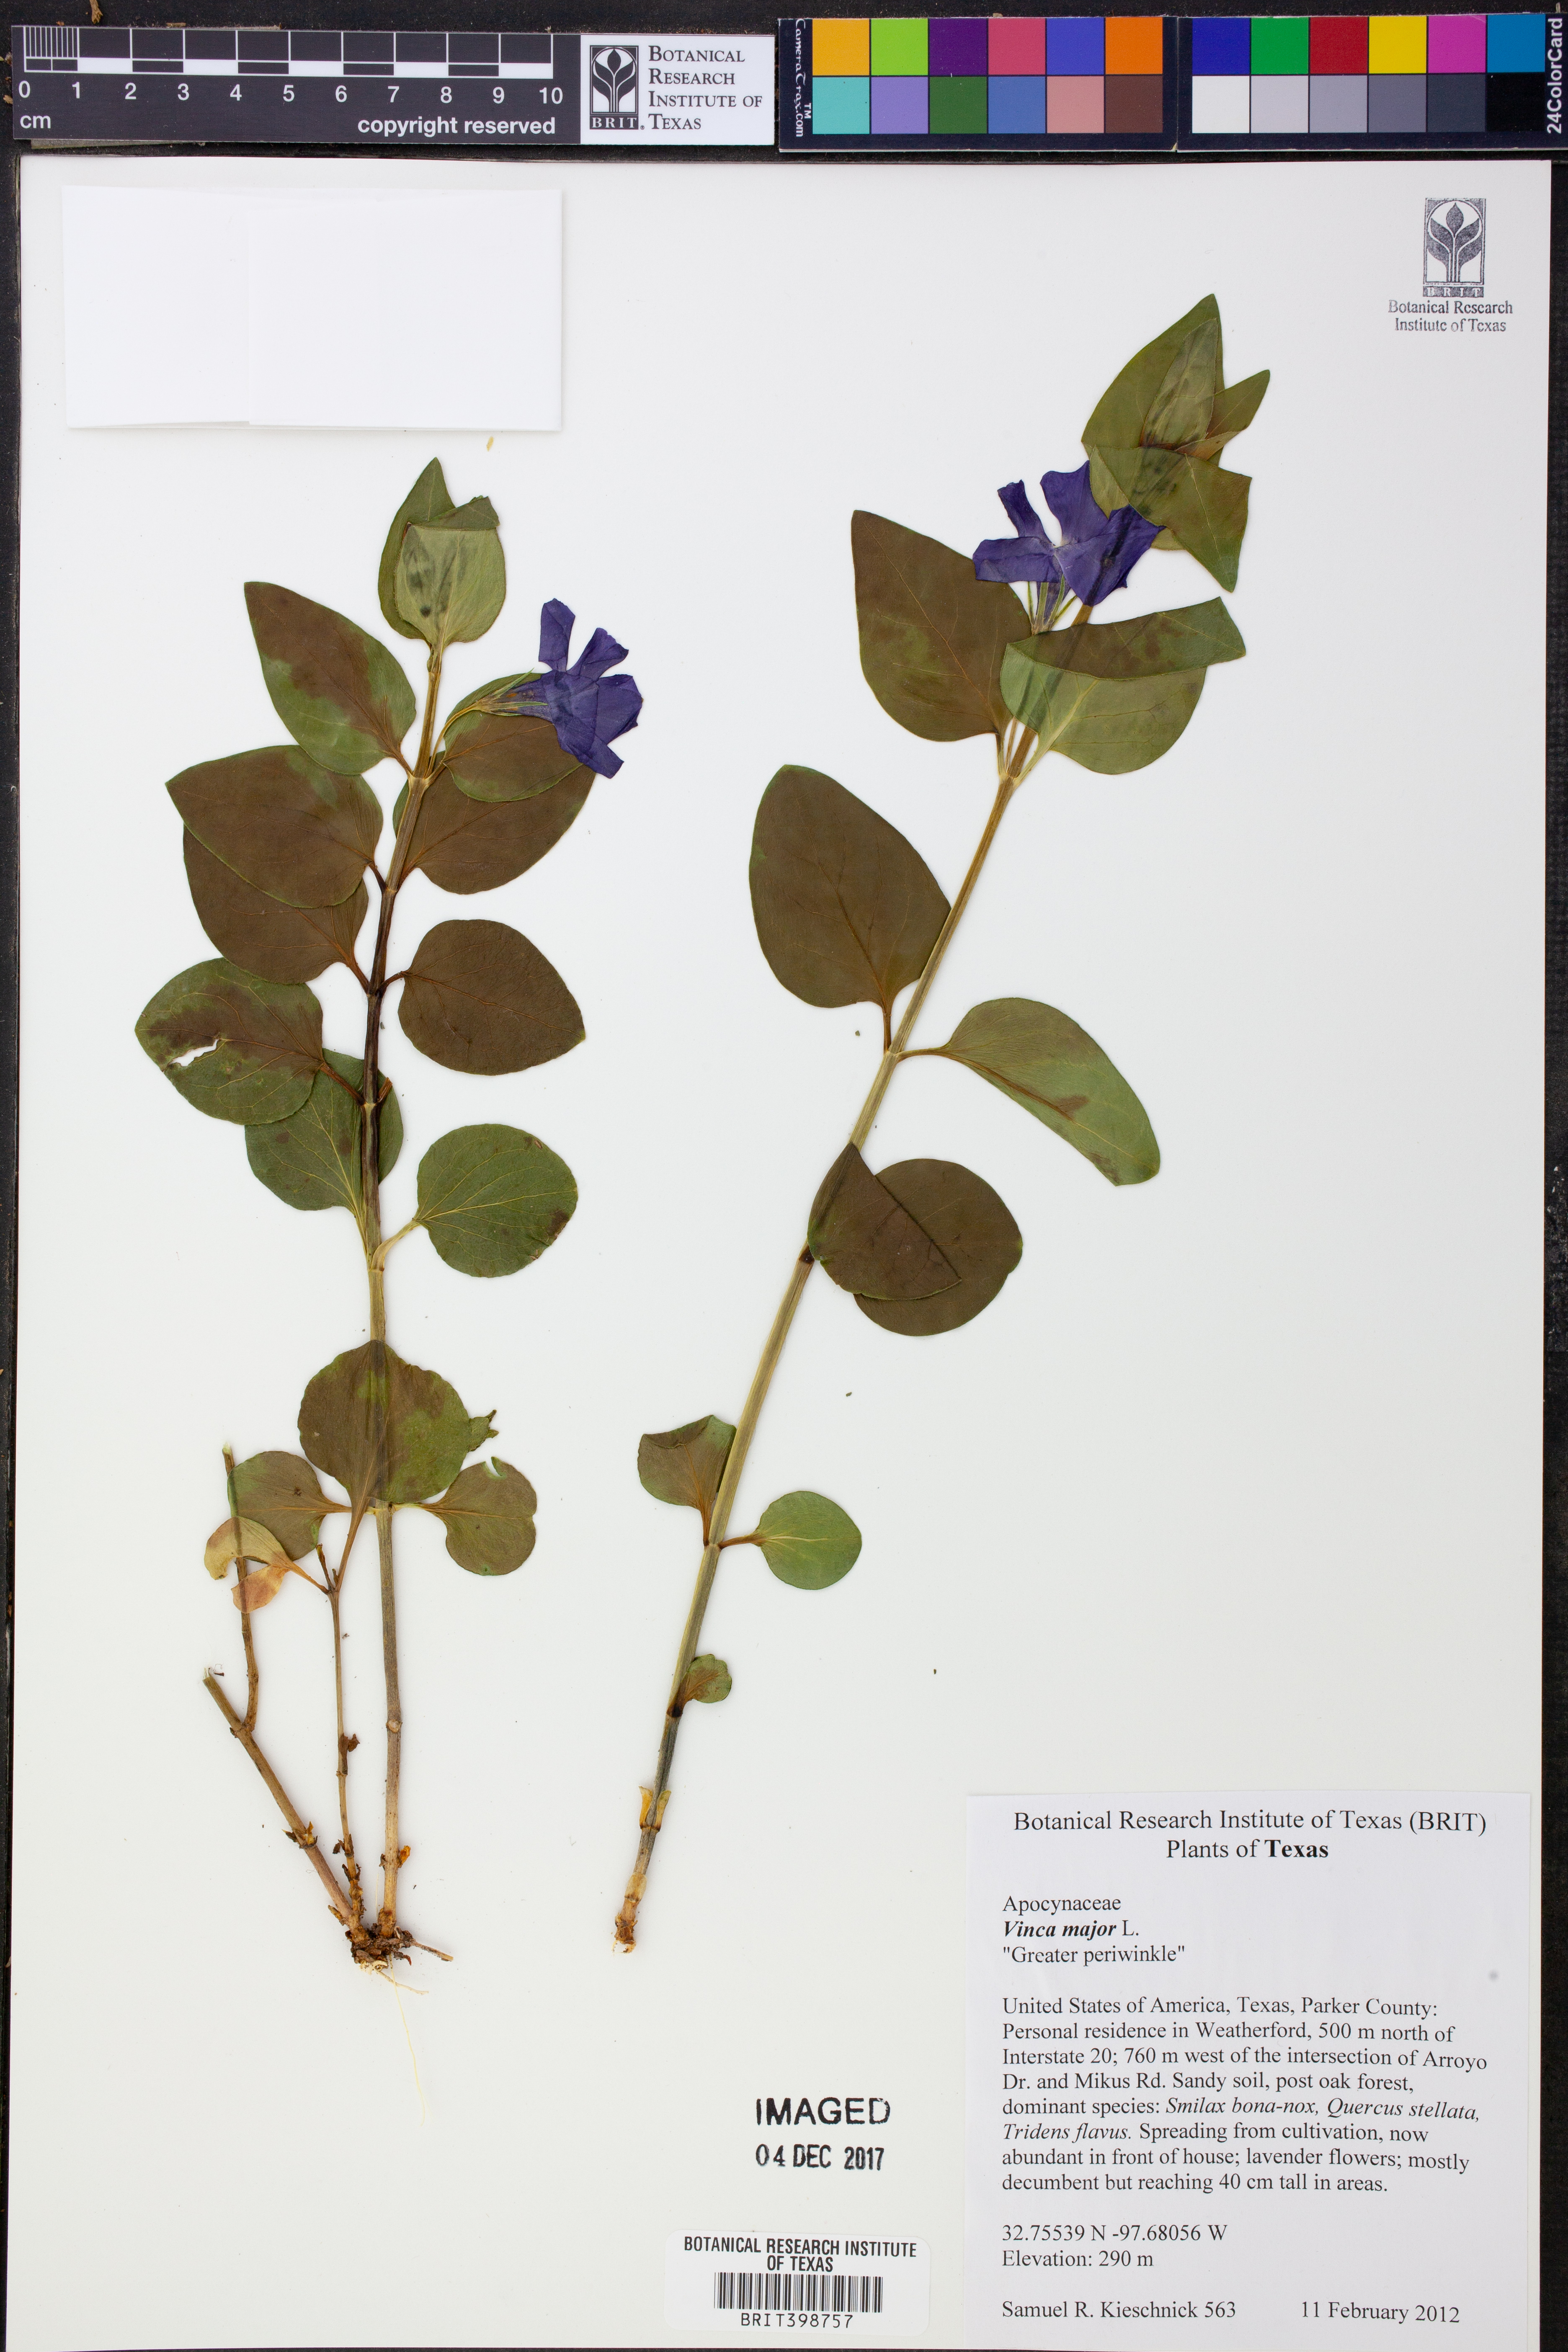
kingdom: Plantae
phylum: Tracheophyta
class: Magnoliopsida
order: Gentianales
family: Apocynaceae
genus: Vinca
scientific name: Vinca major
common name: Greater periwinkle
